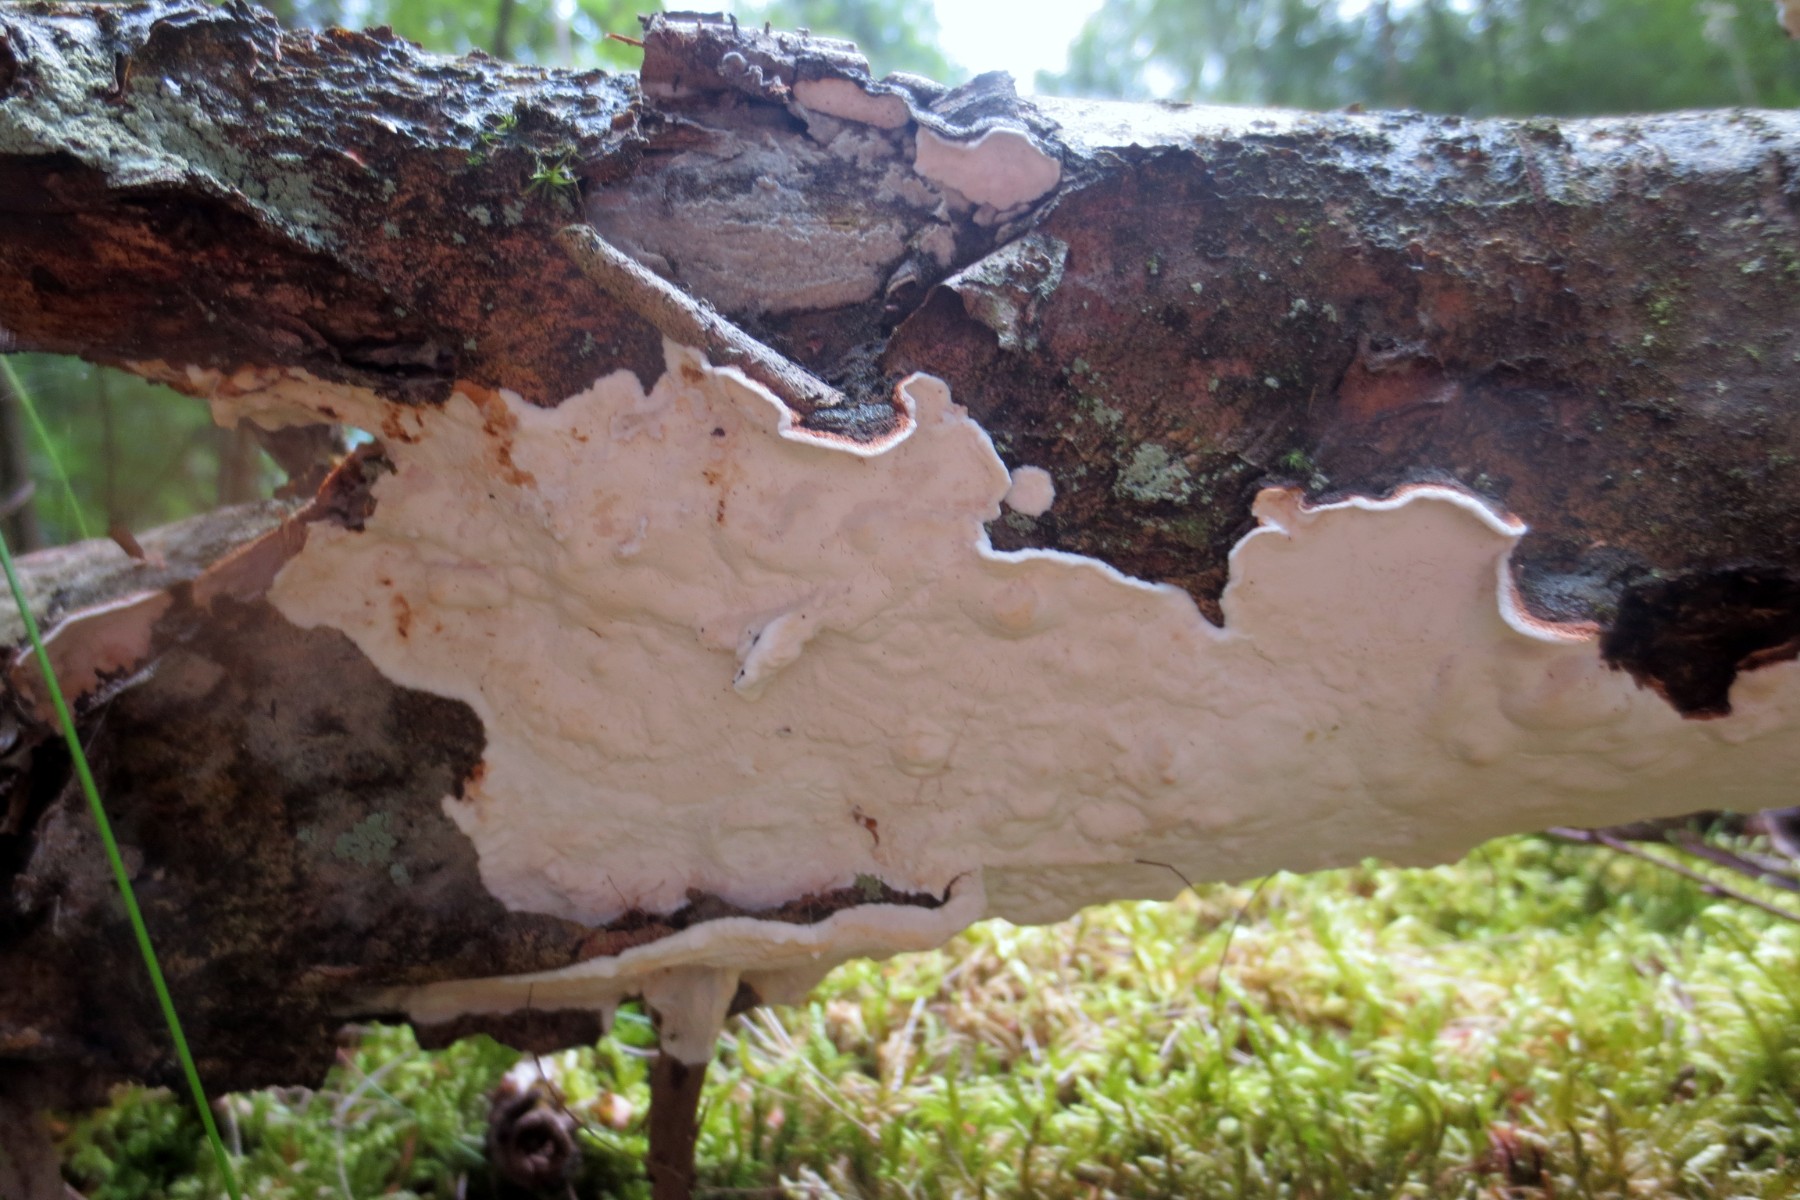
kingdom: Fungi
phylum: Basidiomycota
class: Agaricomycetes
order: Russulales
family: Hericiaceae
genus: Laxitextum
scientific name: Laxitextum bicolor
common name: tvefarvet filtskind
